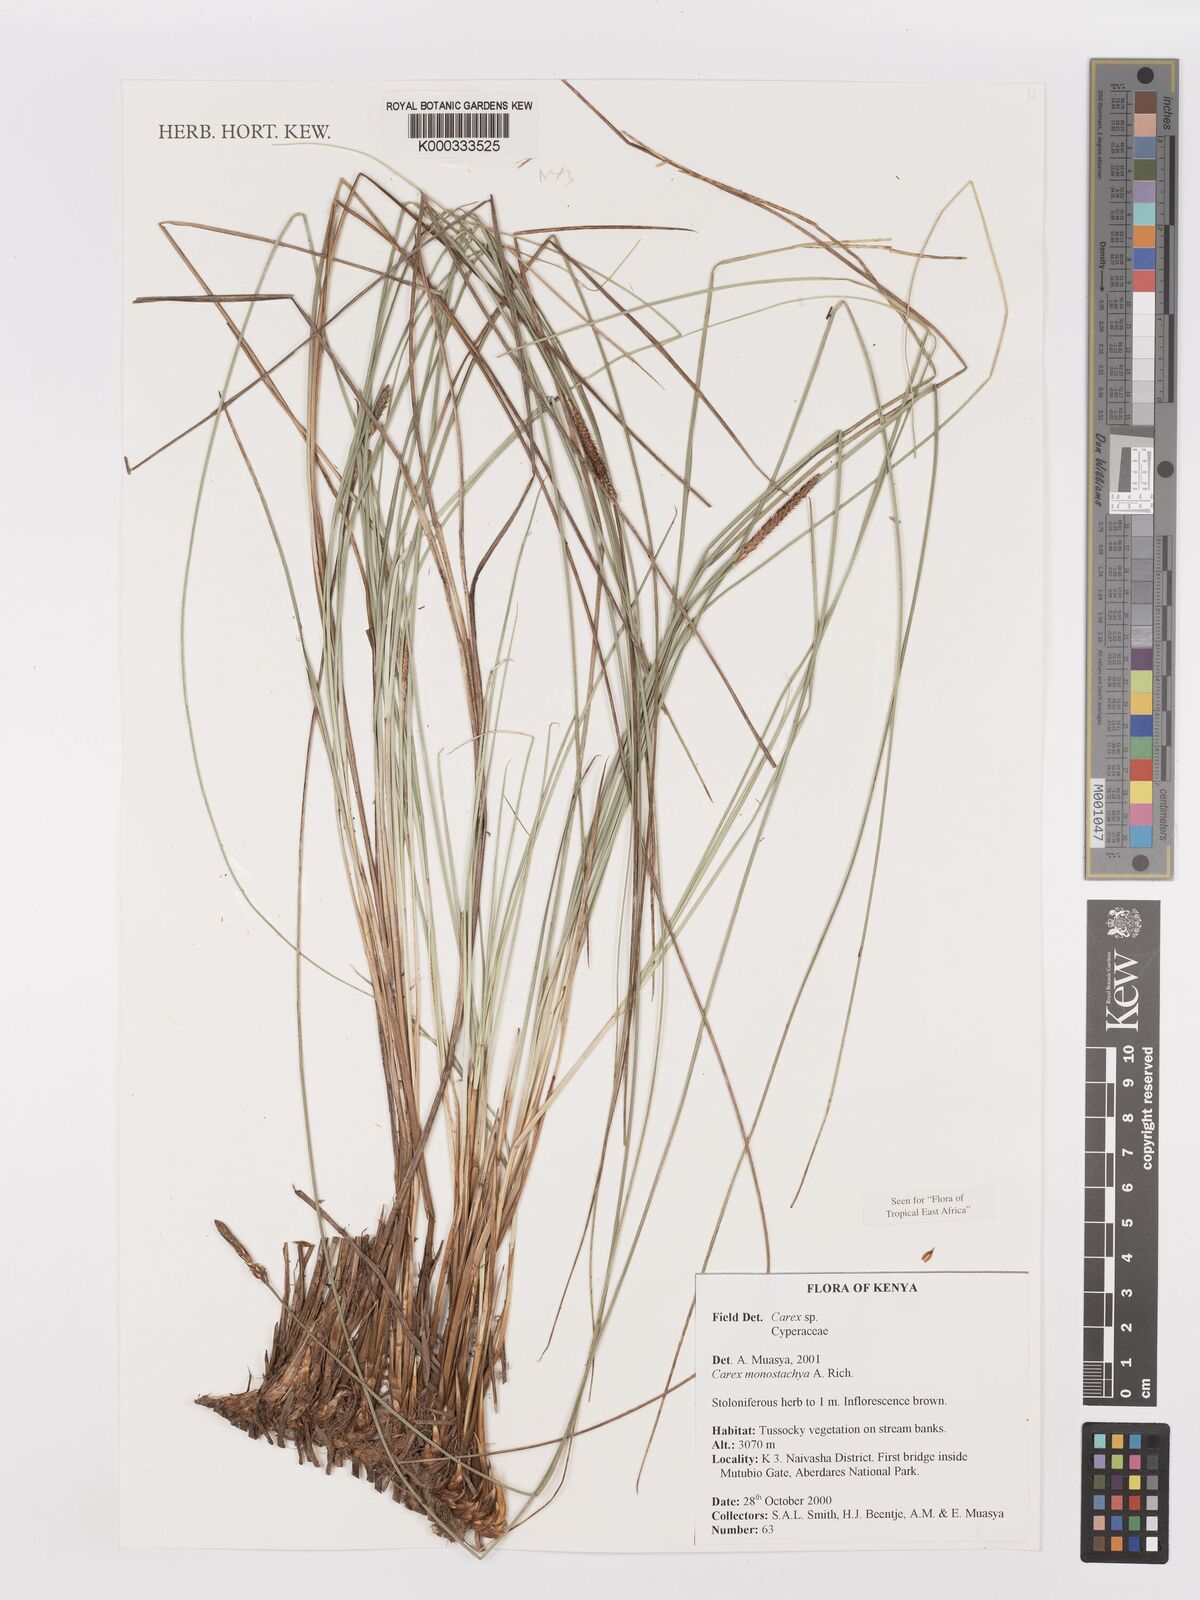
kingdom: Plantae
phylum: Tracheophyta
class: Liliopsida
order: Poales
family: Cyperaceae
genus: Carex
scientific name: Carex monostachya
